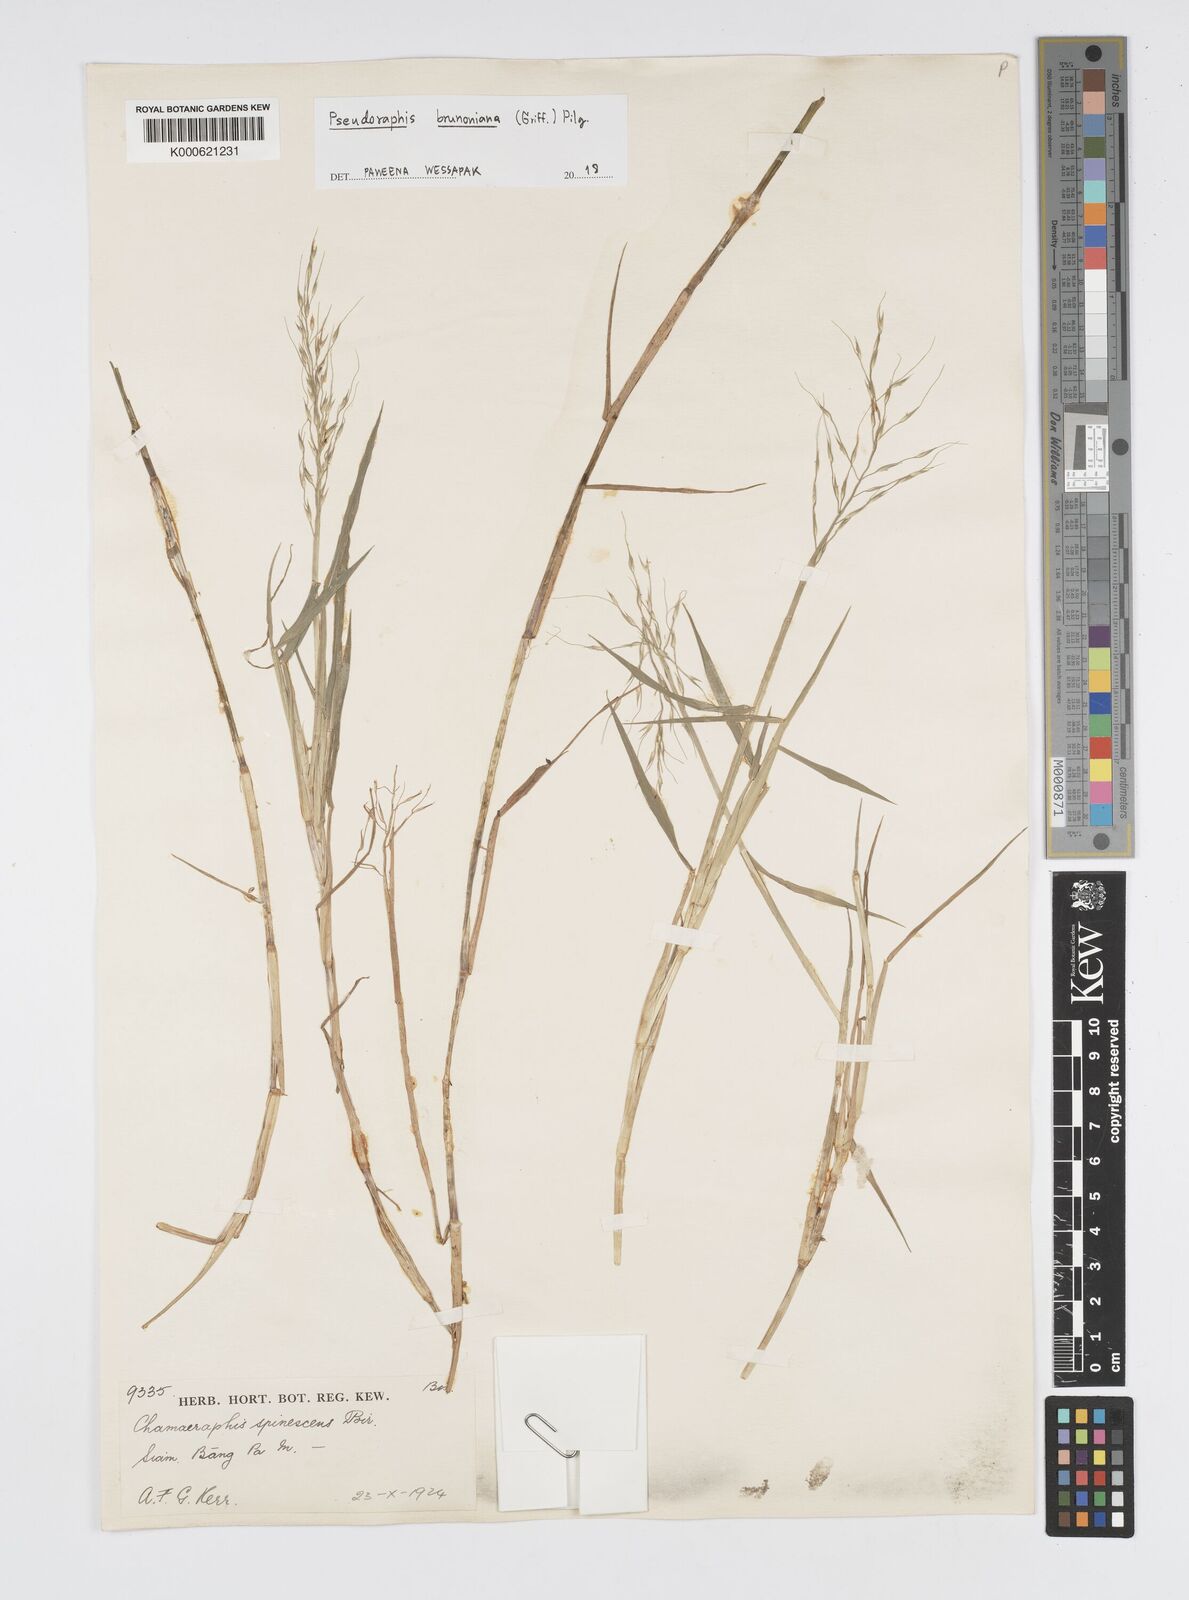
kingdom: Plantae
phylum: Tracheophyta
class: Liliopsida
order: Poales
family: Poaceae
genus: Pseudoraphis
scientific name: Pseudoraphis brunoniana
